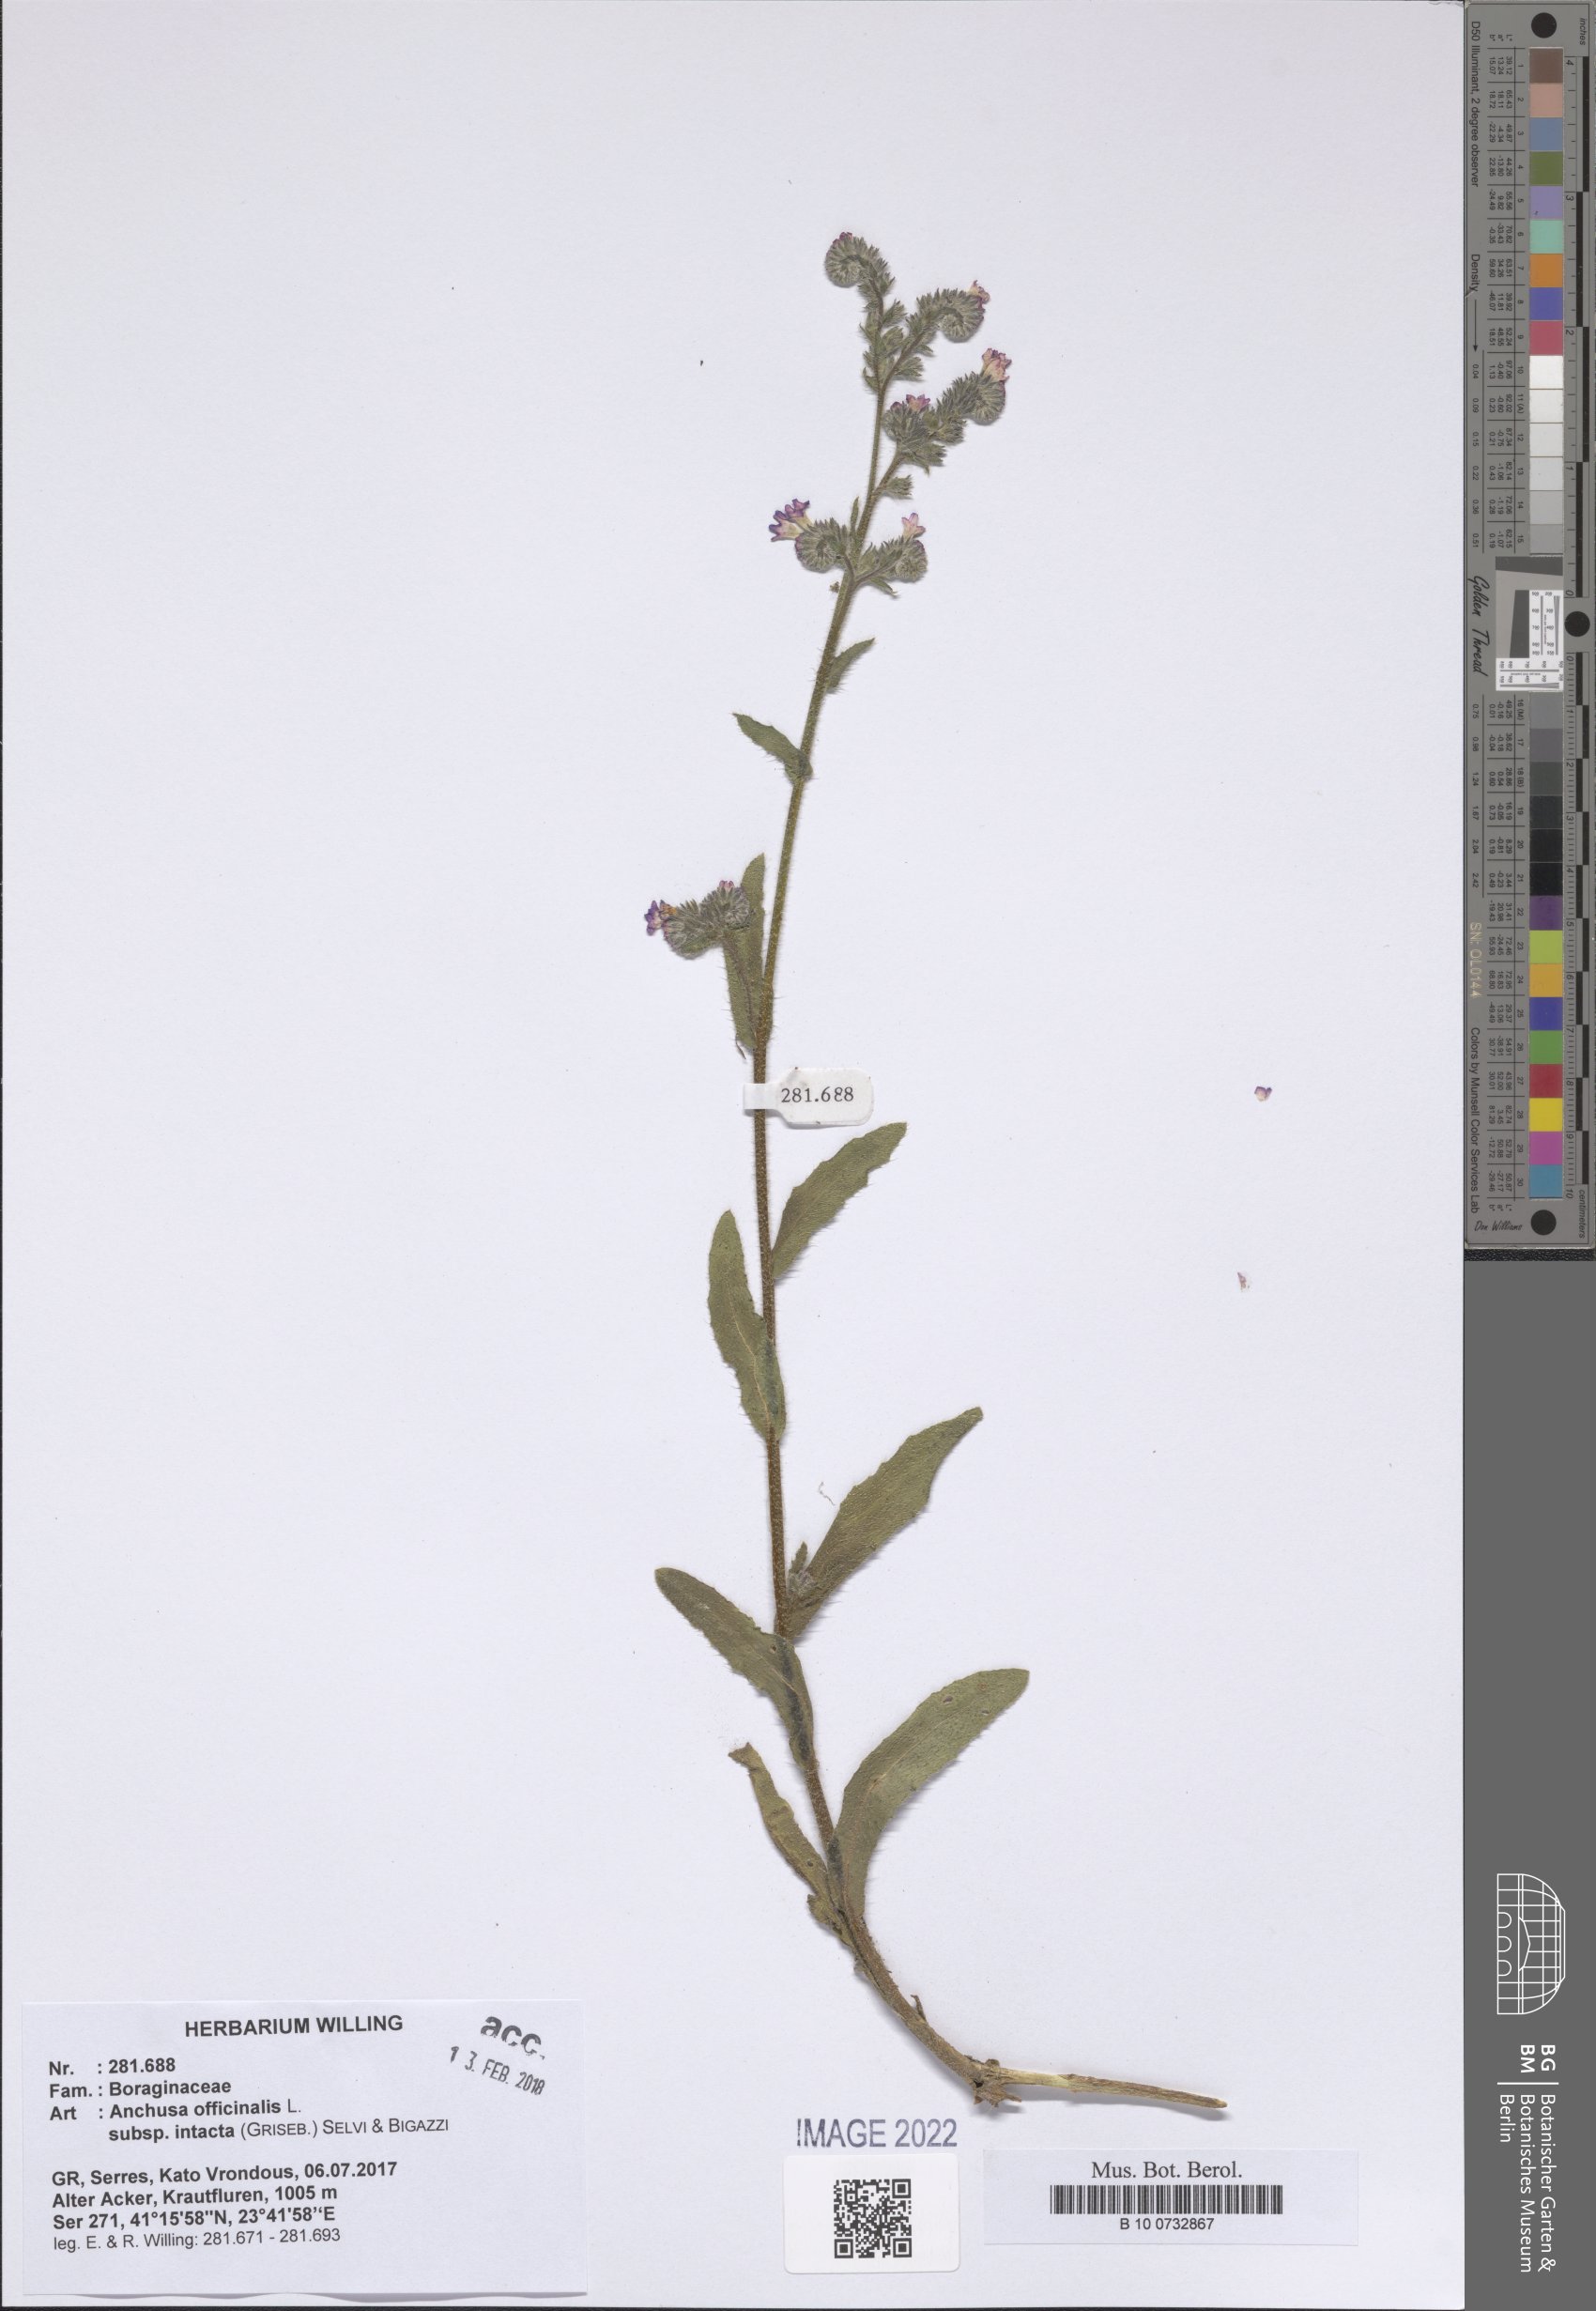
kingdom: Plantae
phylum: Tracheophyta
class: Magnoliopsida
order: Boraginales
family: Boraginaceae
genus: Anchusa
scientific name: Anchusa officinalis
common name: Alkanet
